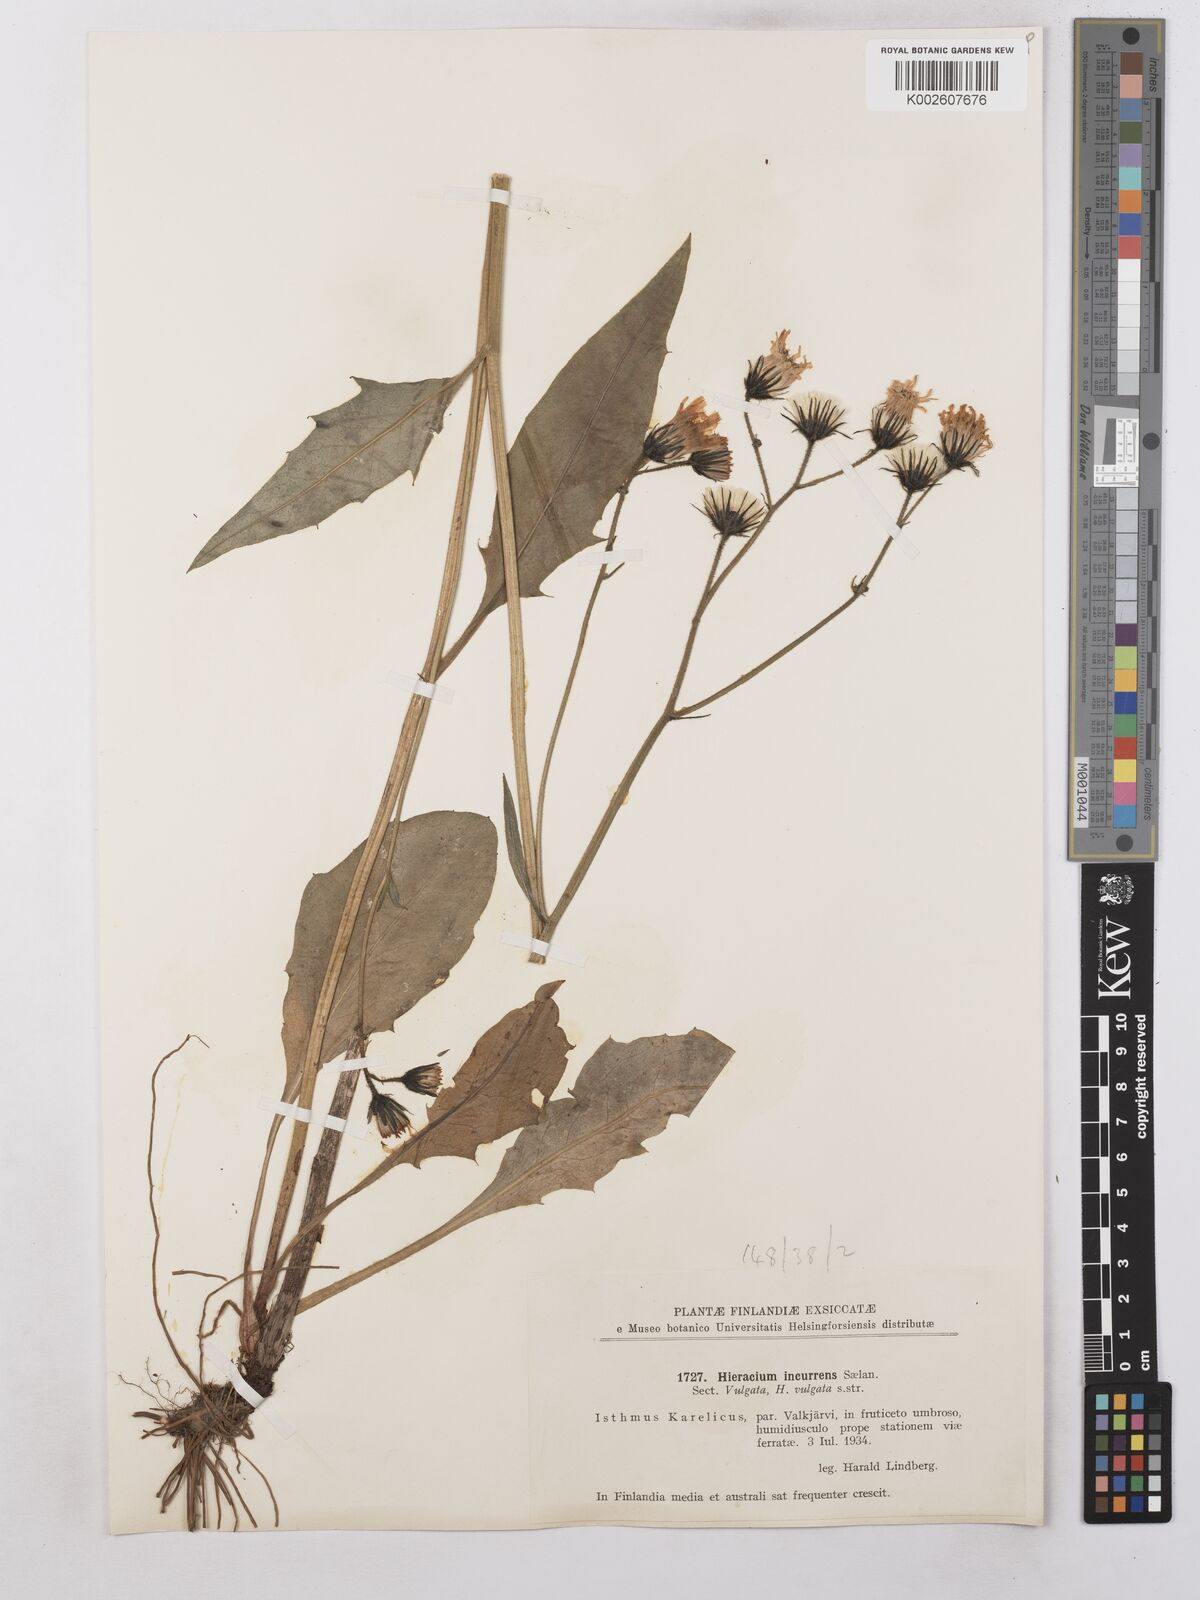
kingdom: Plantae
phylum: Tracheophyta
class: Magnoliopsida
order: Asterales
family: Asteraceae
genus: Hieracium
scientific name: Hieracium subramosum
